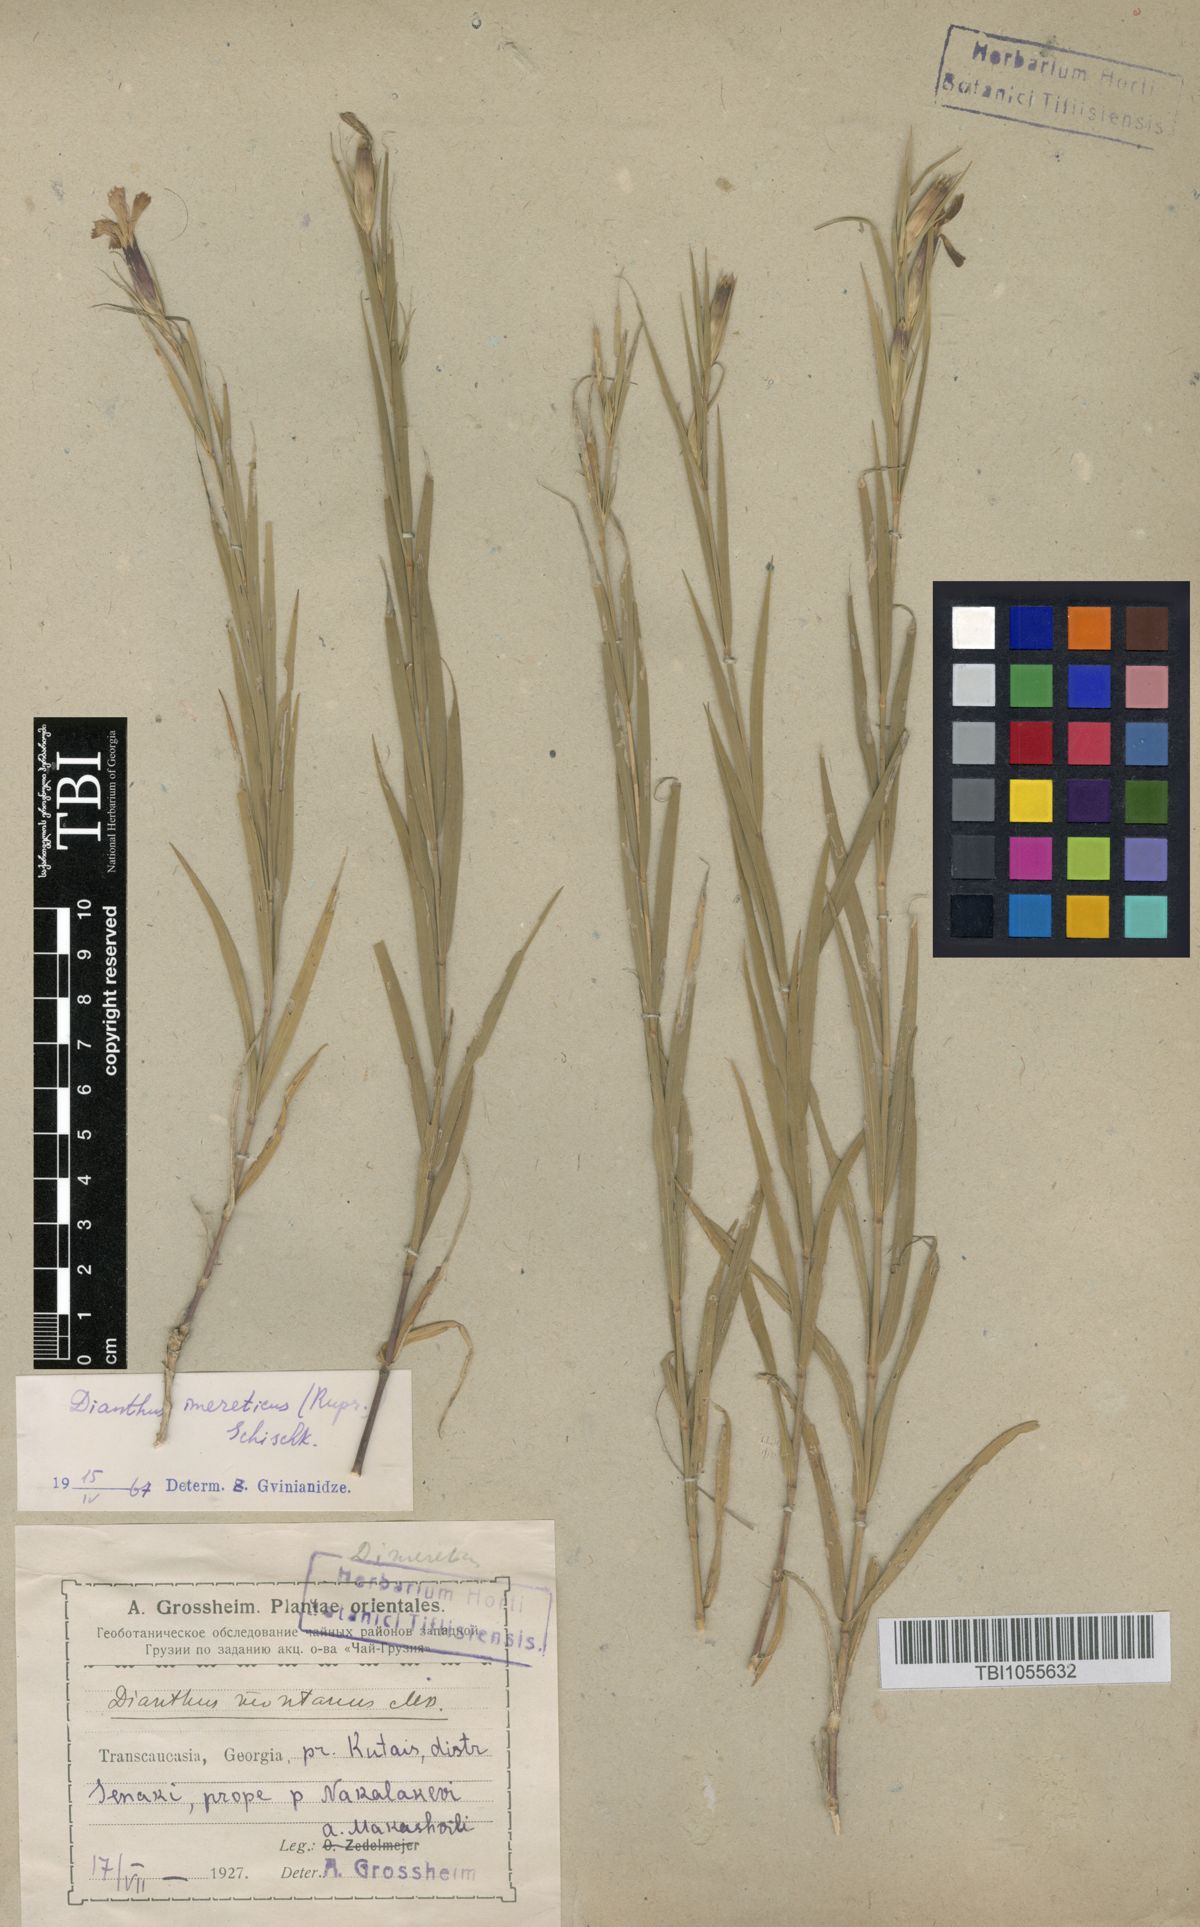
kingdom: Plantae
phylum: Tracheophyta
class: Magnoliopsida
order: Caryophyllales
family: Caryophyllaceae
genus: Dianthus
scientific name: Dianthus imereticus
